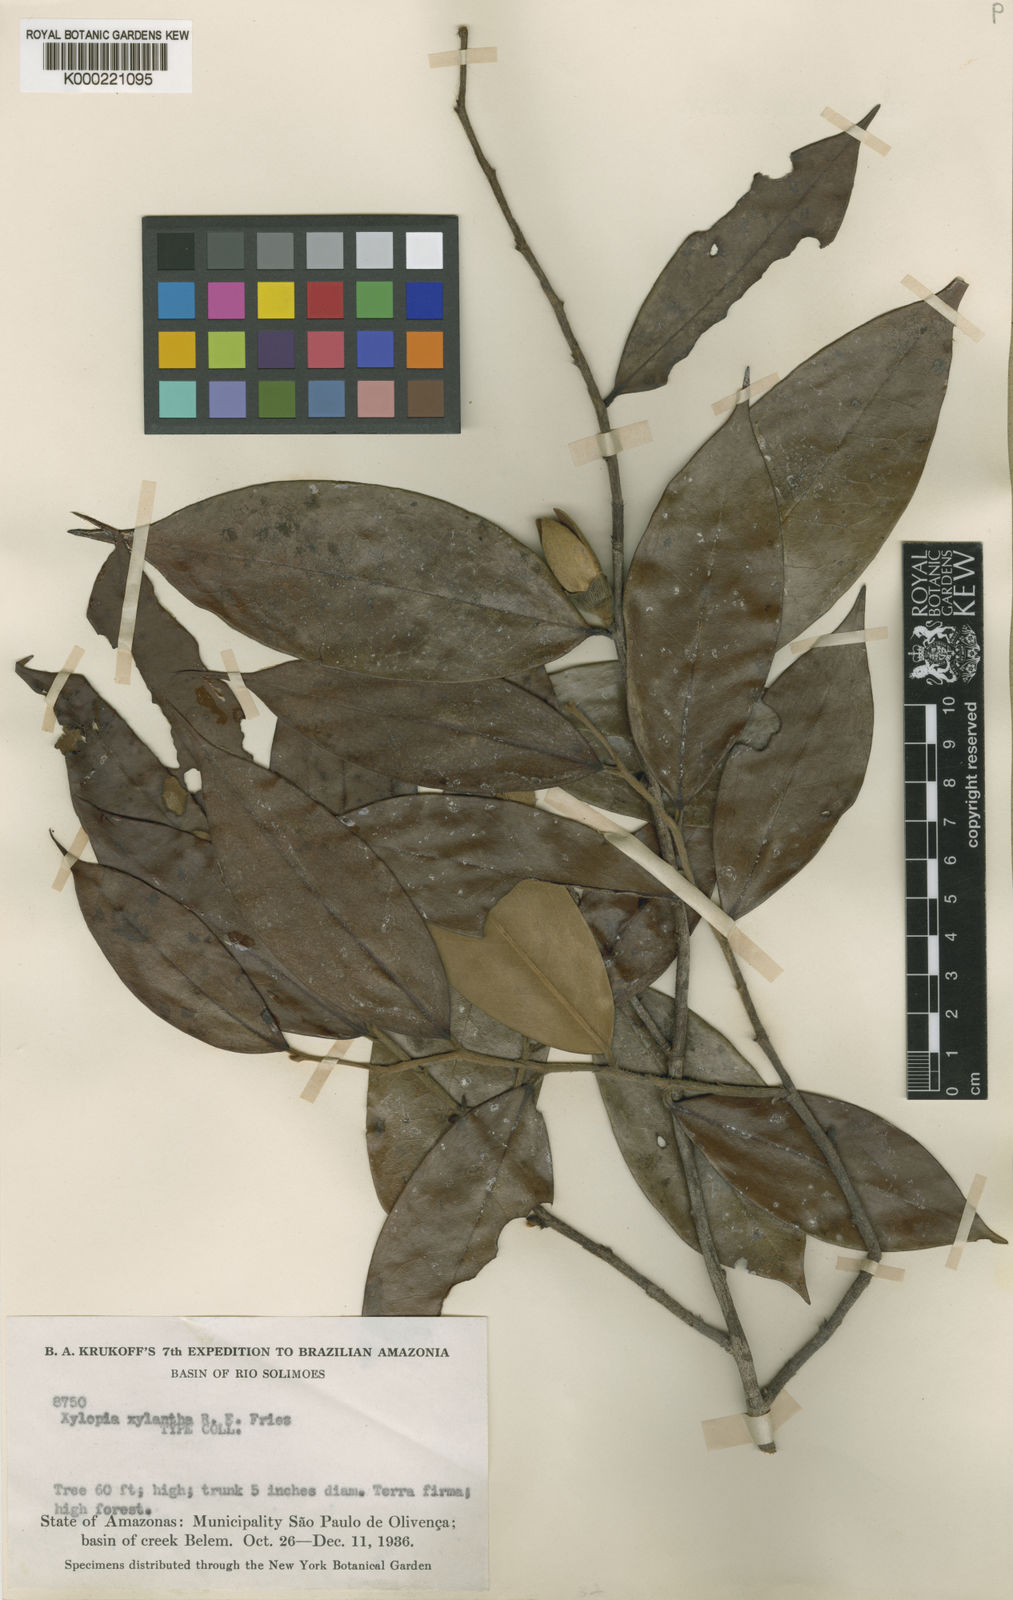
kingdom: Plantae
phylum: Tracheophyta
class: Magnoliopsida
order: Magnoliales
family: Annonaceae
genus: Xylopia
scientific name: Xylopia xylantha
